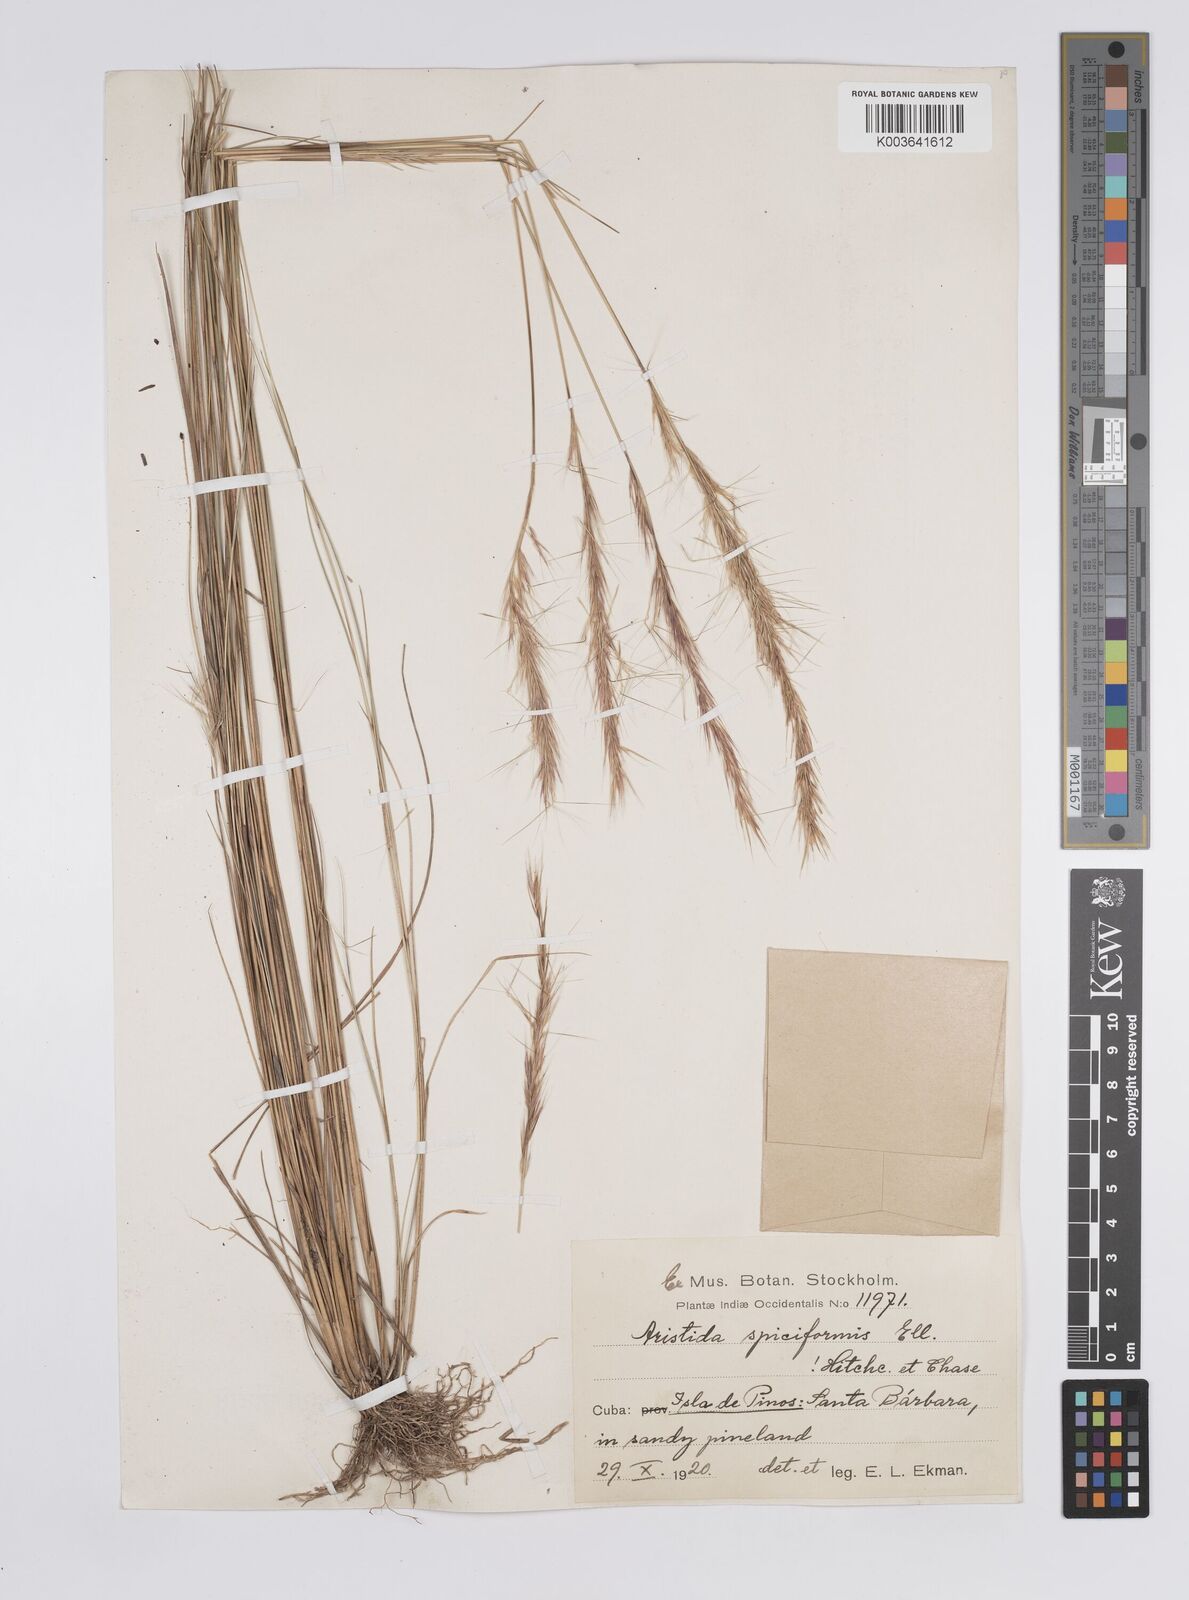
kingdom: Plantae
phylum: Tracheophyta
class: Liliopsida
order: Poales
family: Poaceae
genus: Aristida
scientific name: Aristida spiciformis
